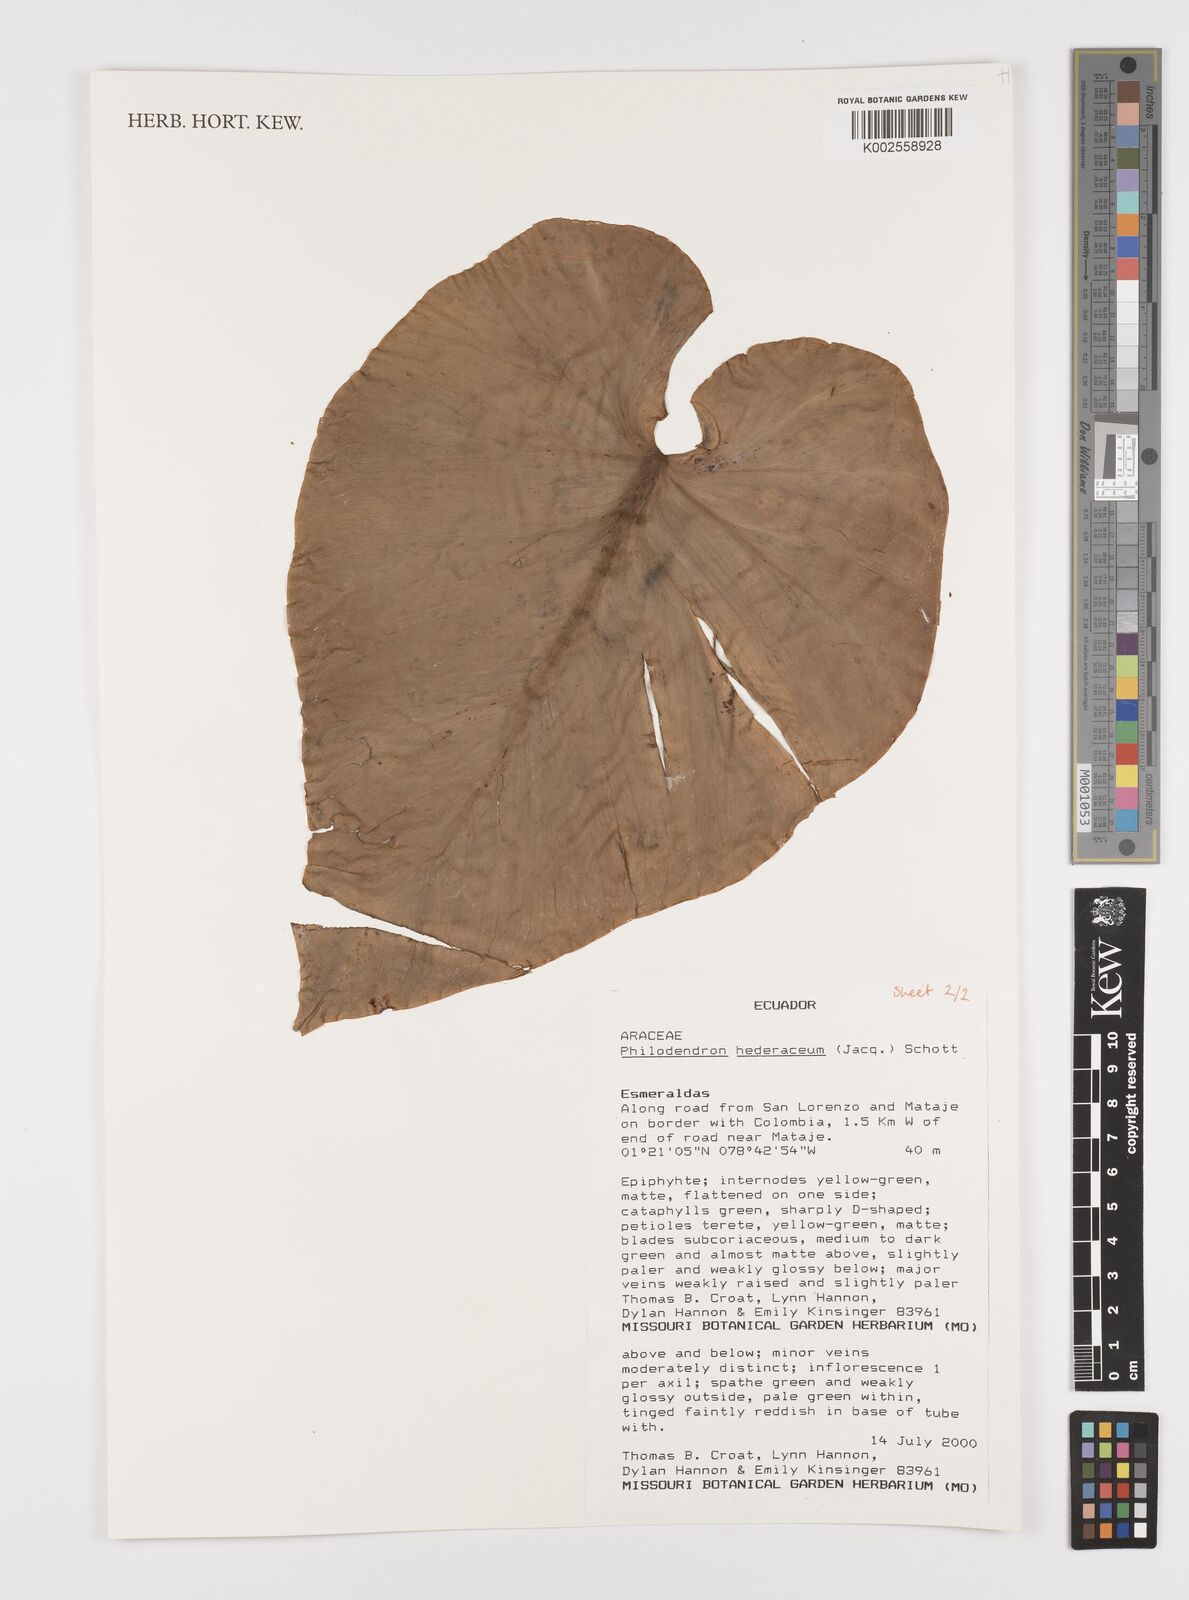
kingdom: Plantae
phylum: Tracheophyta
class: Liliopsida
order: Alismatales
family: Araceae
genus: Philodendron
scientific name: Philodendron hederaceum
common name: Vilevine
